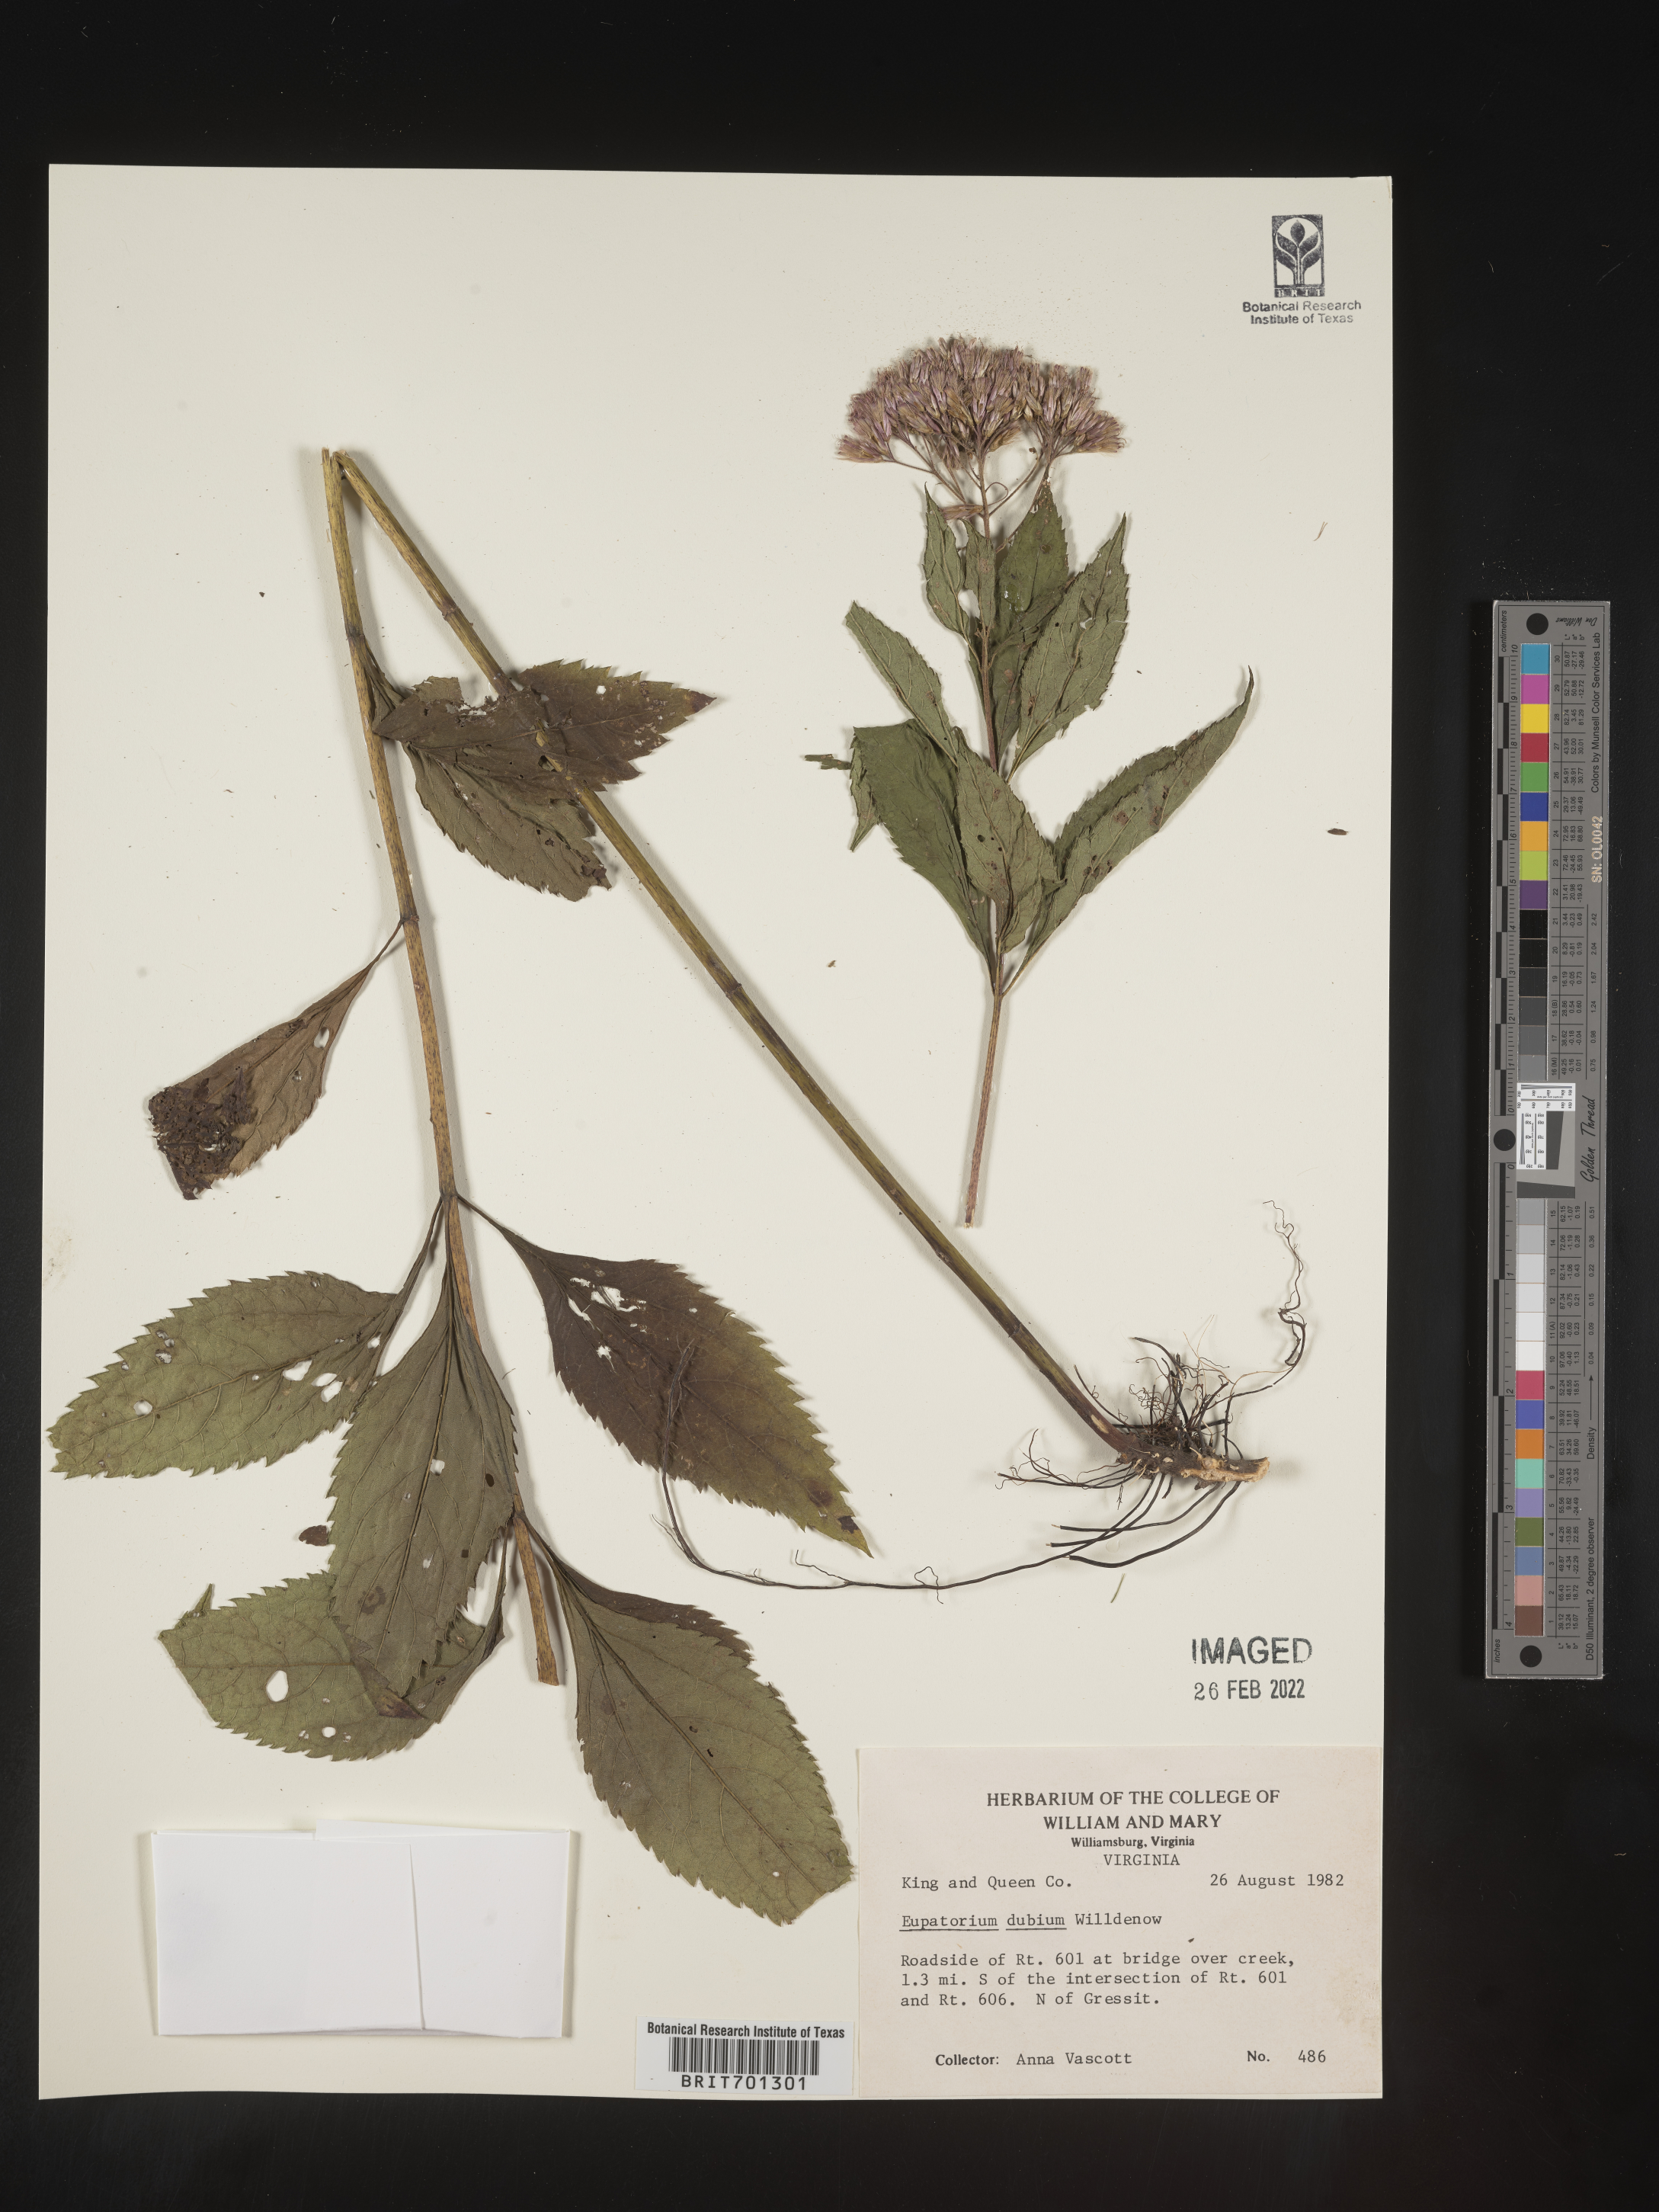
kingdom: Plantae
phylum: Tracheophyta
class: Magnoliopsida
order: Asterales
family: Asteraceae
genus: Eutrochium
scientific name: Eutrochium dubium
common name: Coastal plain joe pye weed
